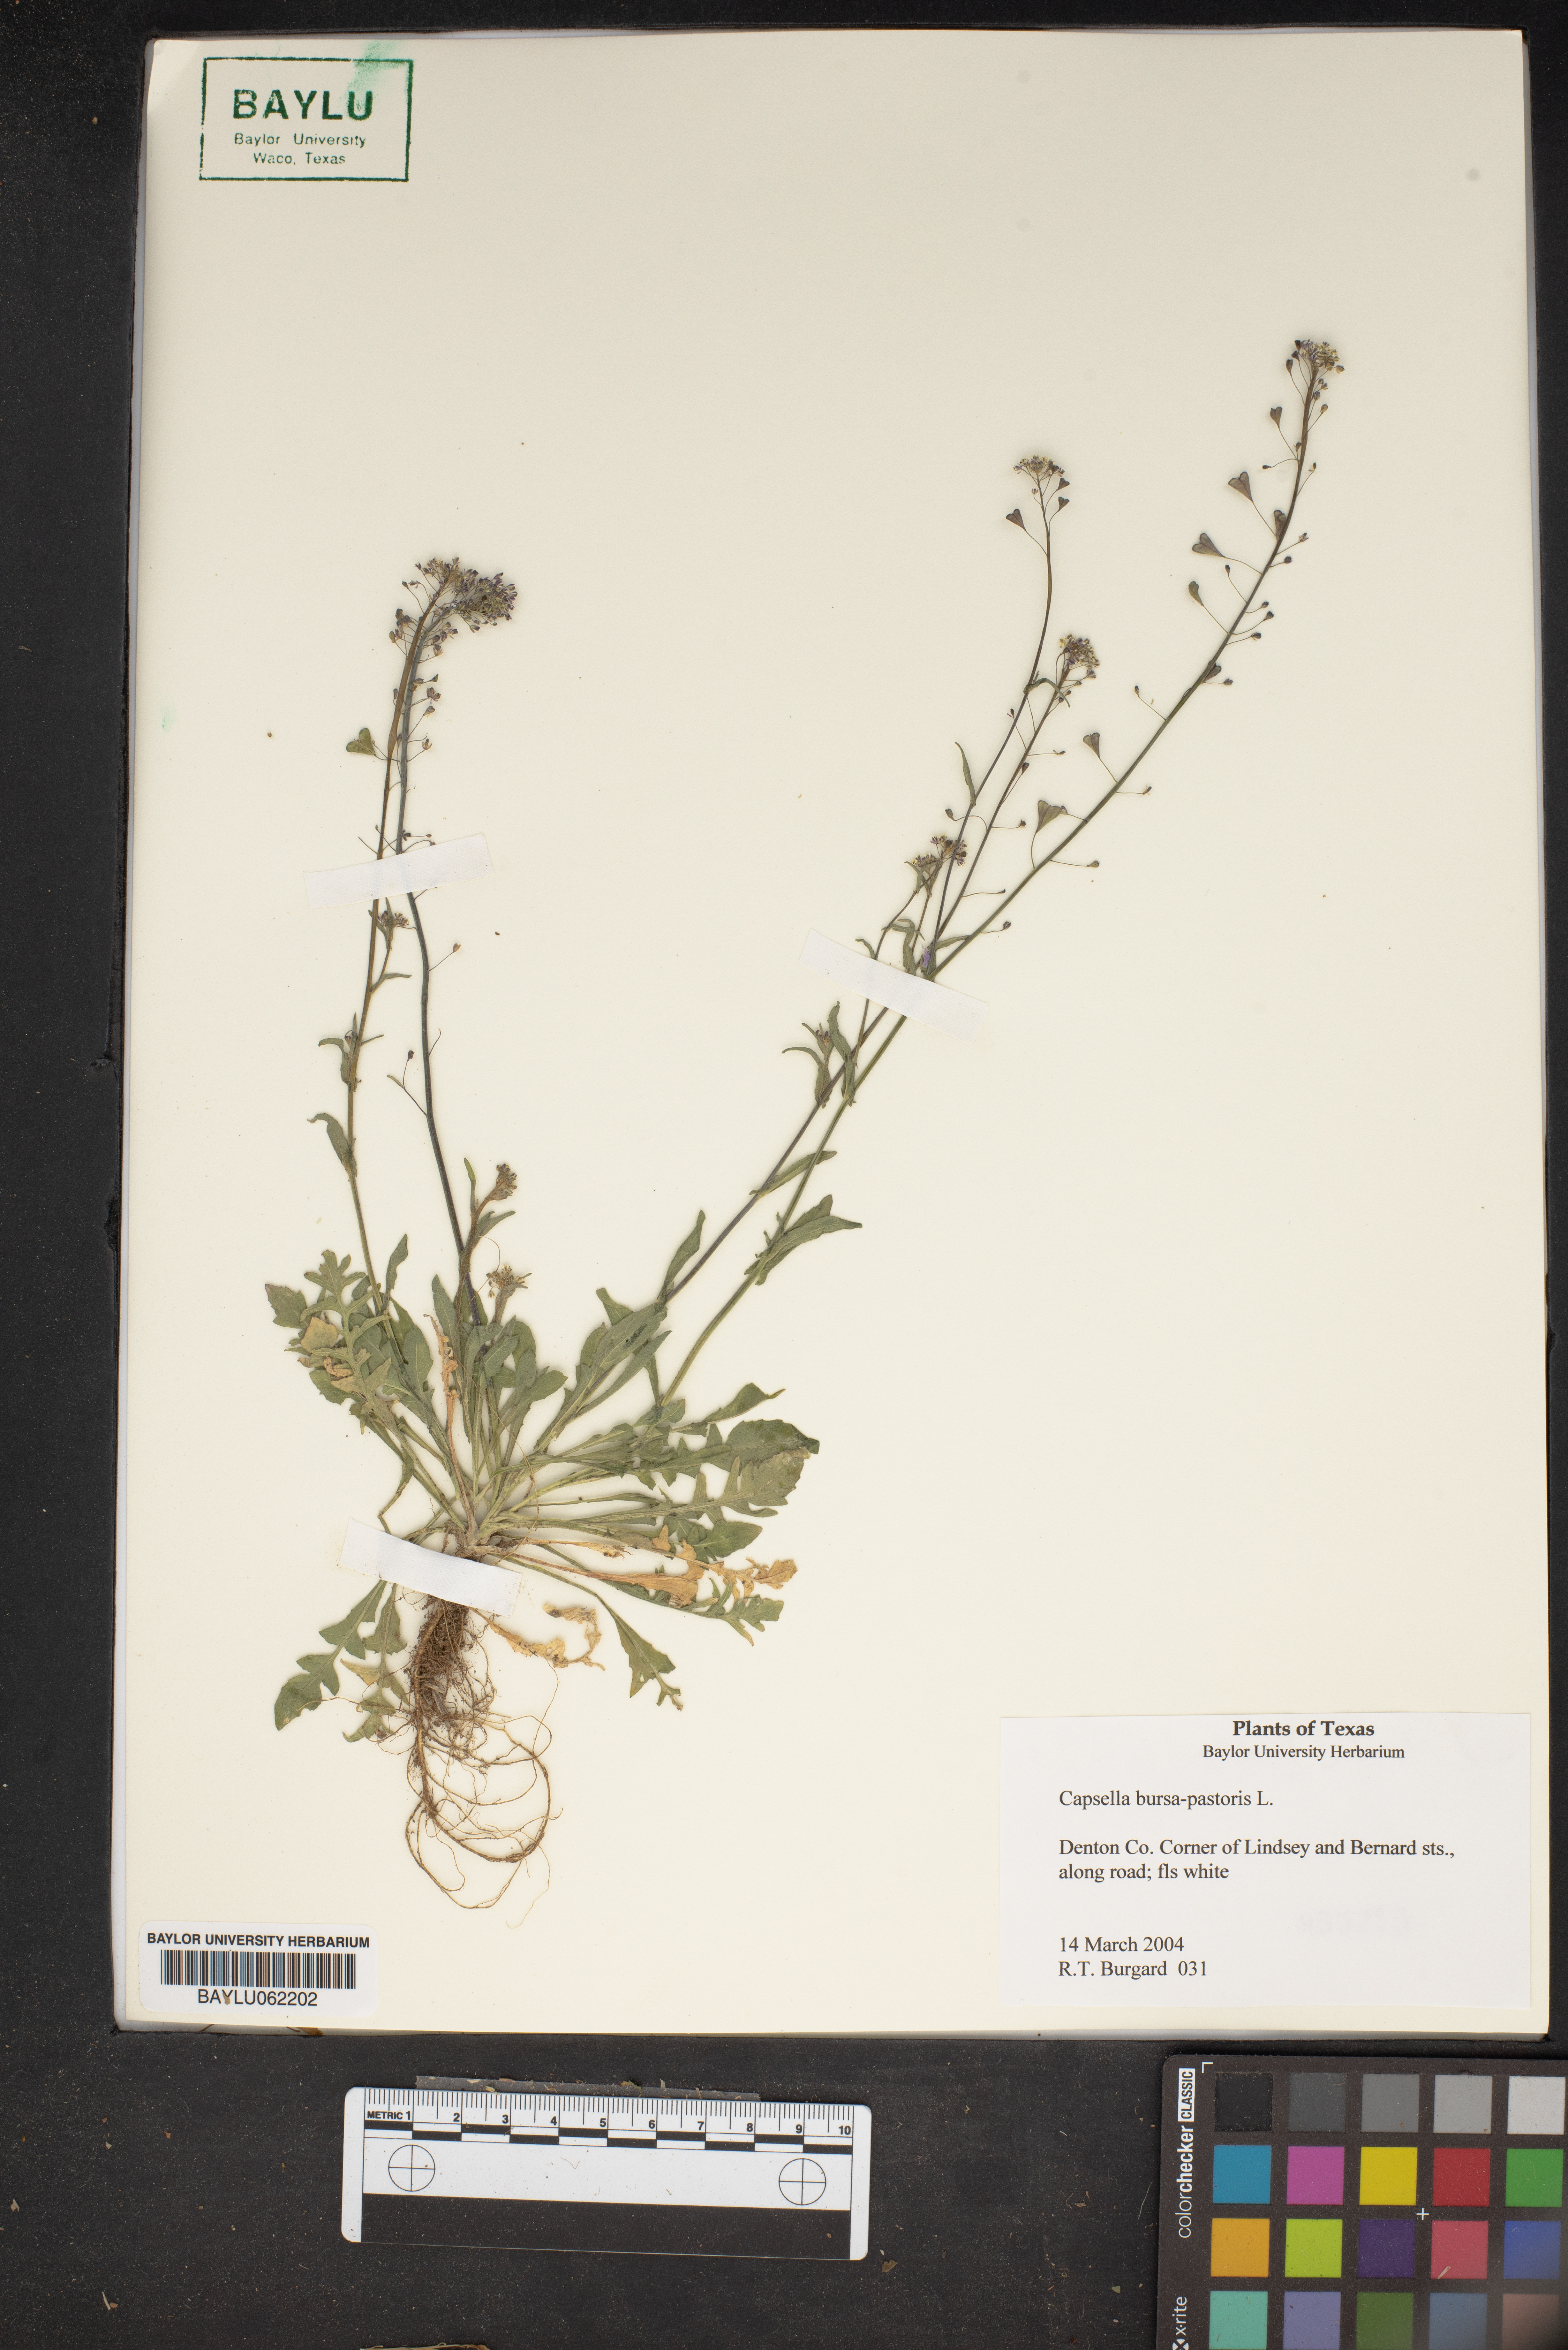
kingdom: Plantae
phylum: Tracheophyta
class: Magnoliopsida
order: Brassicales
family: Brassicaceae
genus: Capsella
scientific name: Capsella bursa-pastoris
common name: Shepherd's purse
